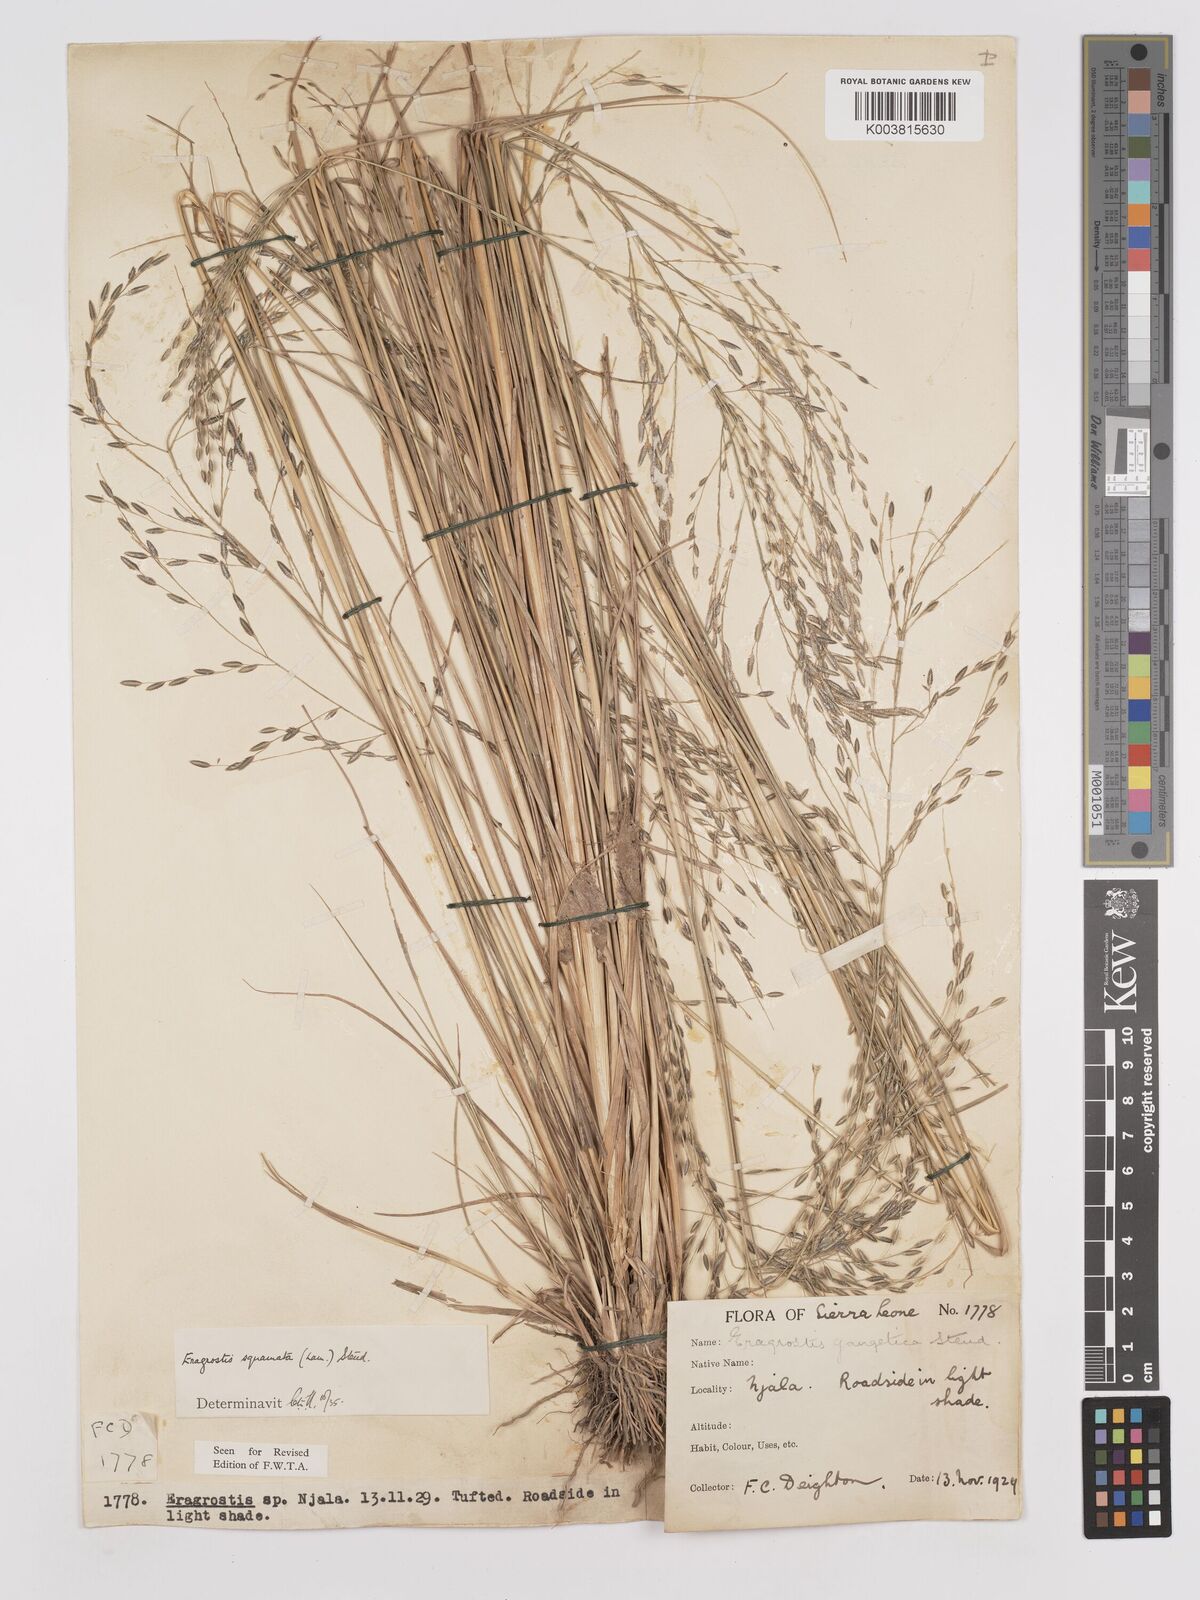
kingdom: Plantae
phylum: Tracheophyta
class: Liliopsida
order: Poales
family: Poaceae
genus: Eragrostis
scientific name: Eragrostis squamata
